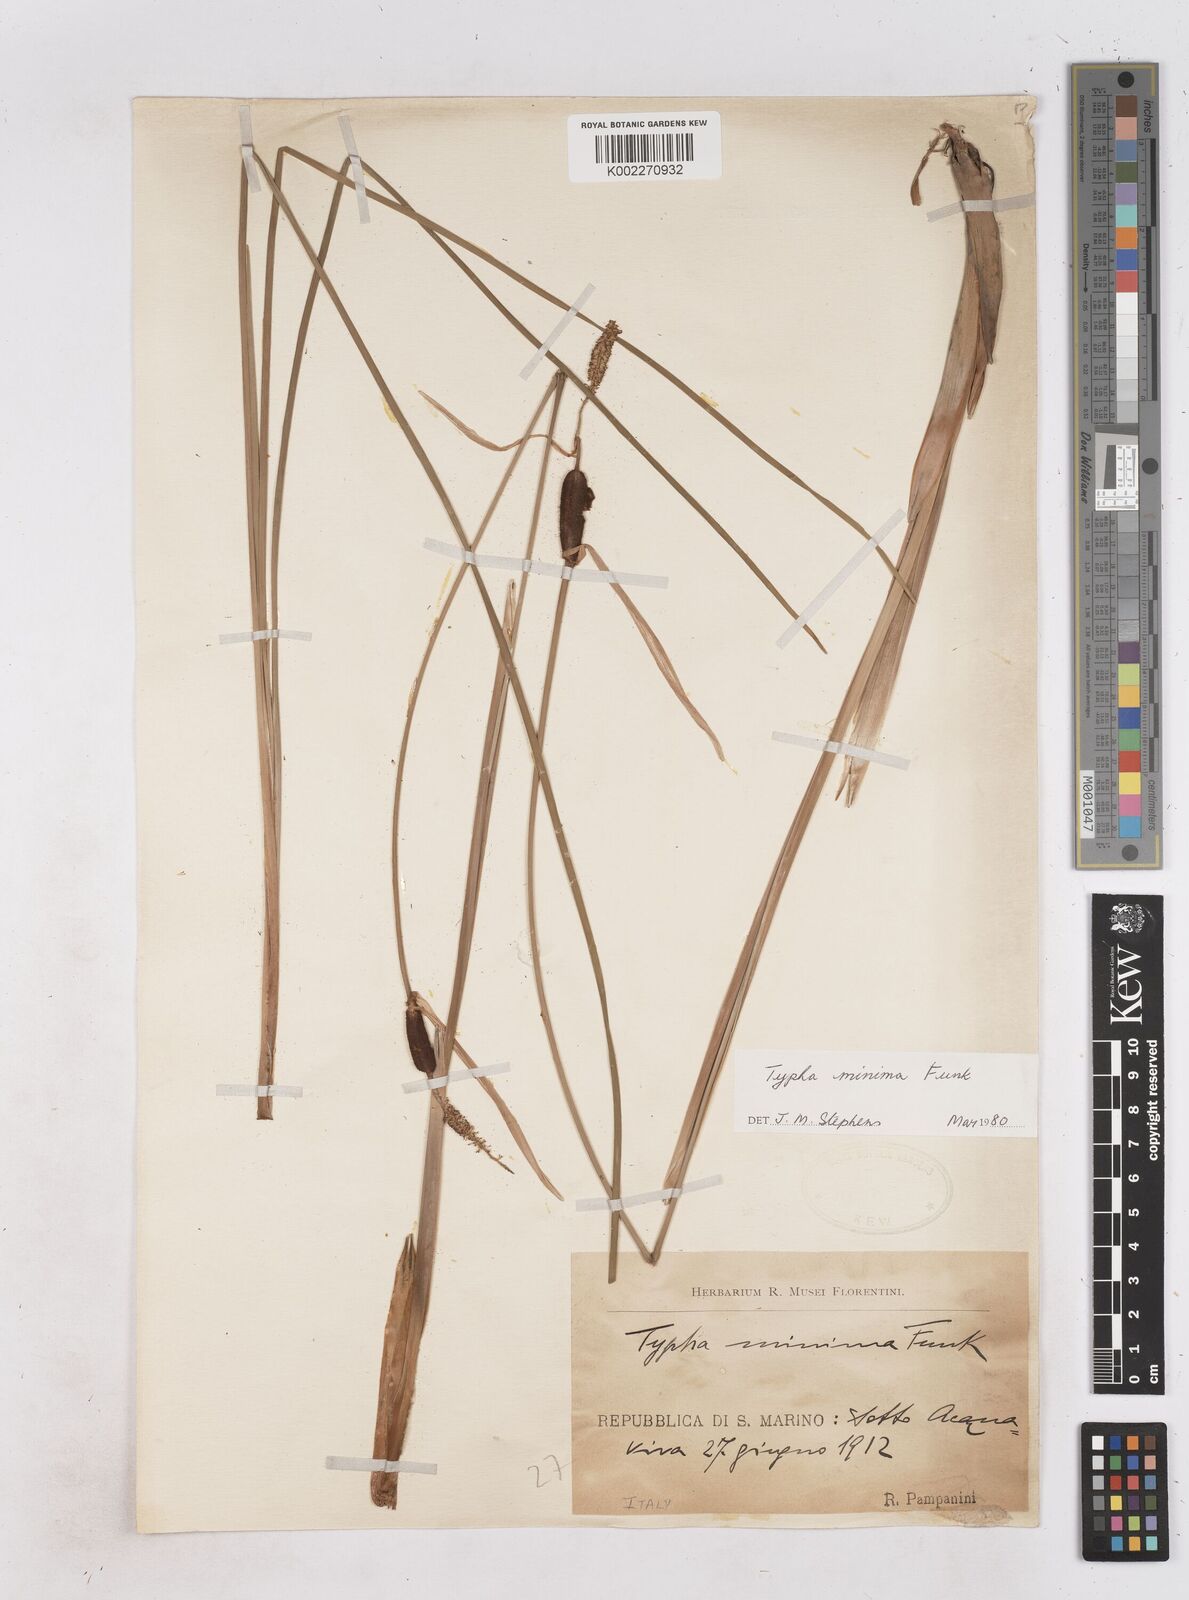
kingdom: Plantae
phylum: Tracheophyta
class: Liliopsida
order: Poales
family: Typhaceae
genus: Typha
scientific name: Typha minima
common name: Dwarf bulrush
